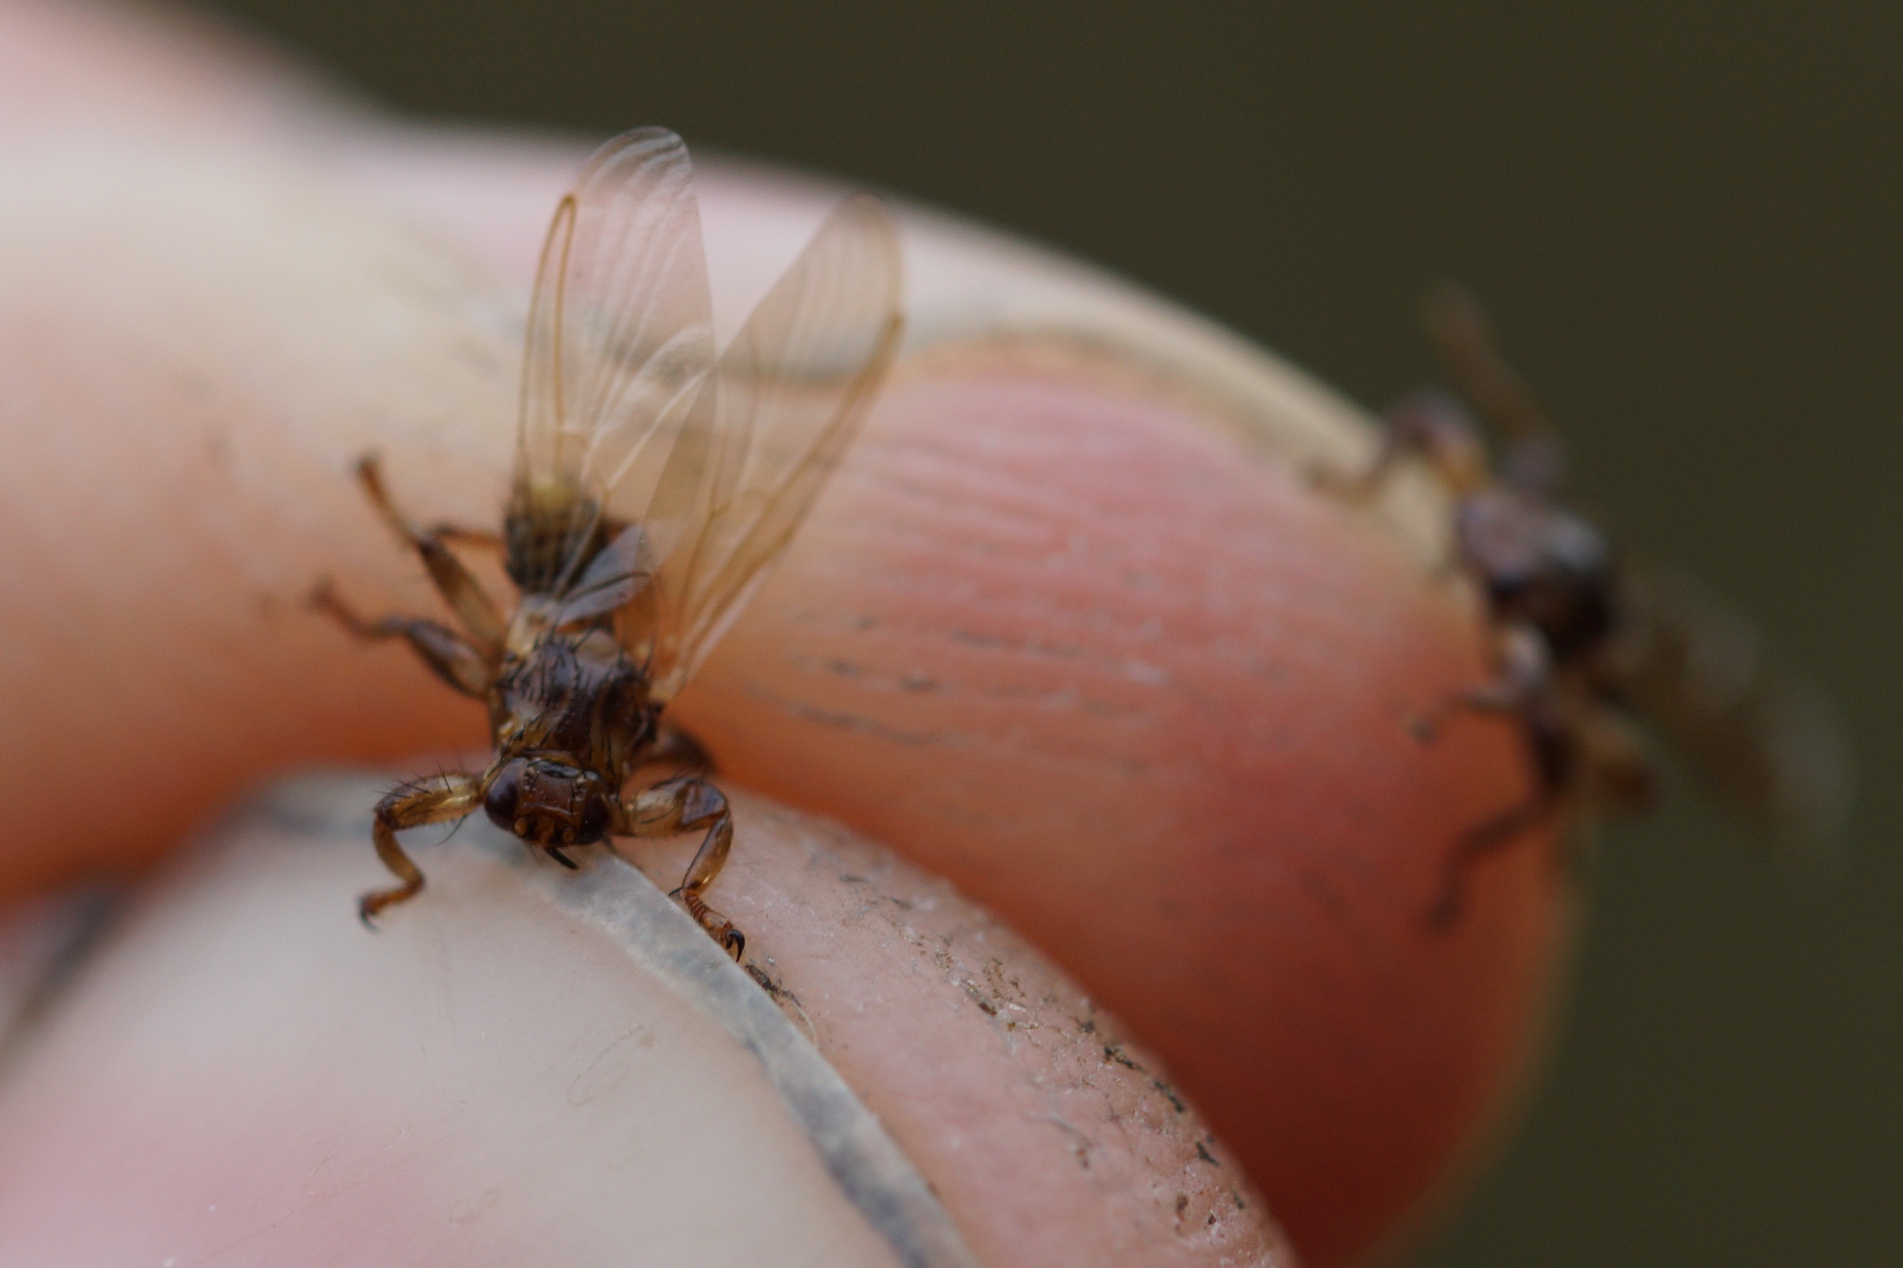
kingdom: Animalia
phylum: Arthropoda
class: Insecta
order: Diptera
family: Hippoboscidae
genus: Lipoptena
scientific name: Lipoptena cervi
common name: Hjortelus
